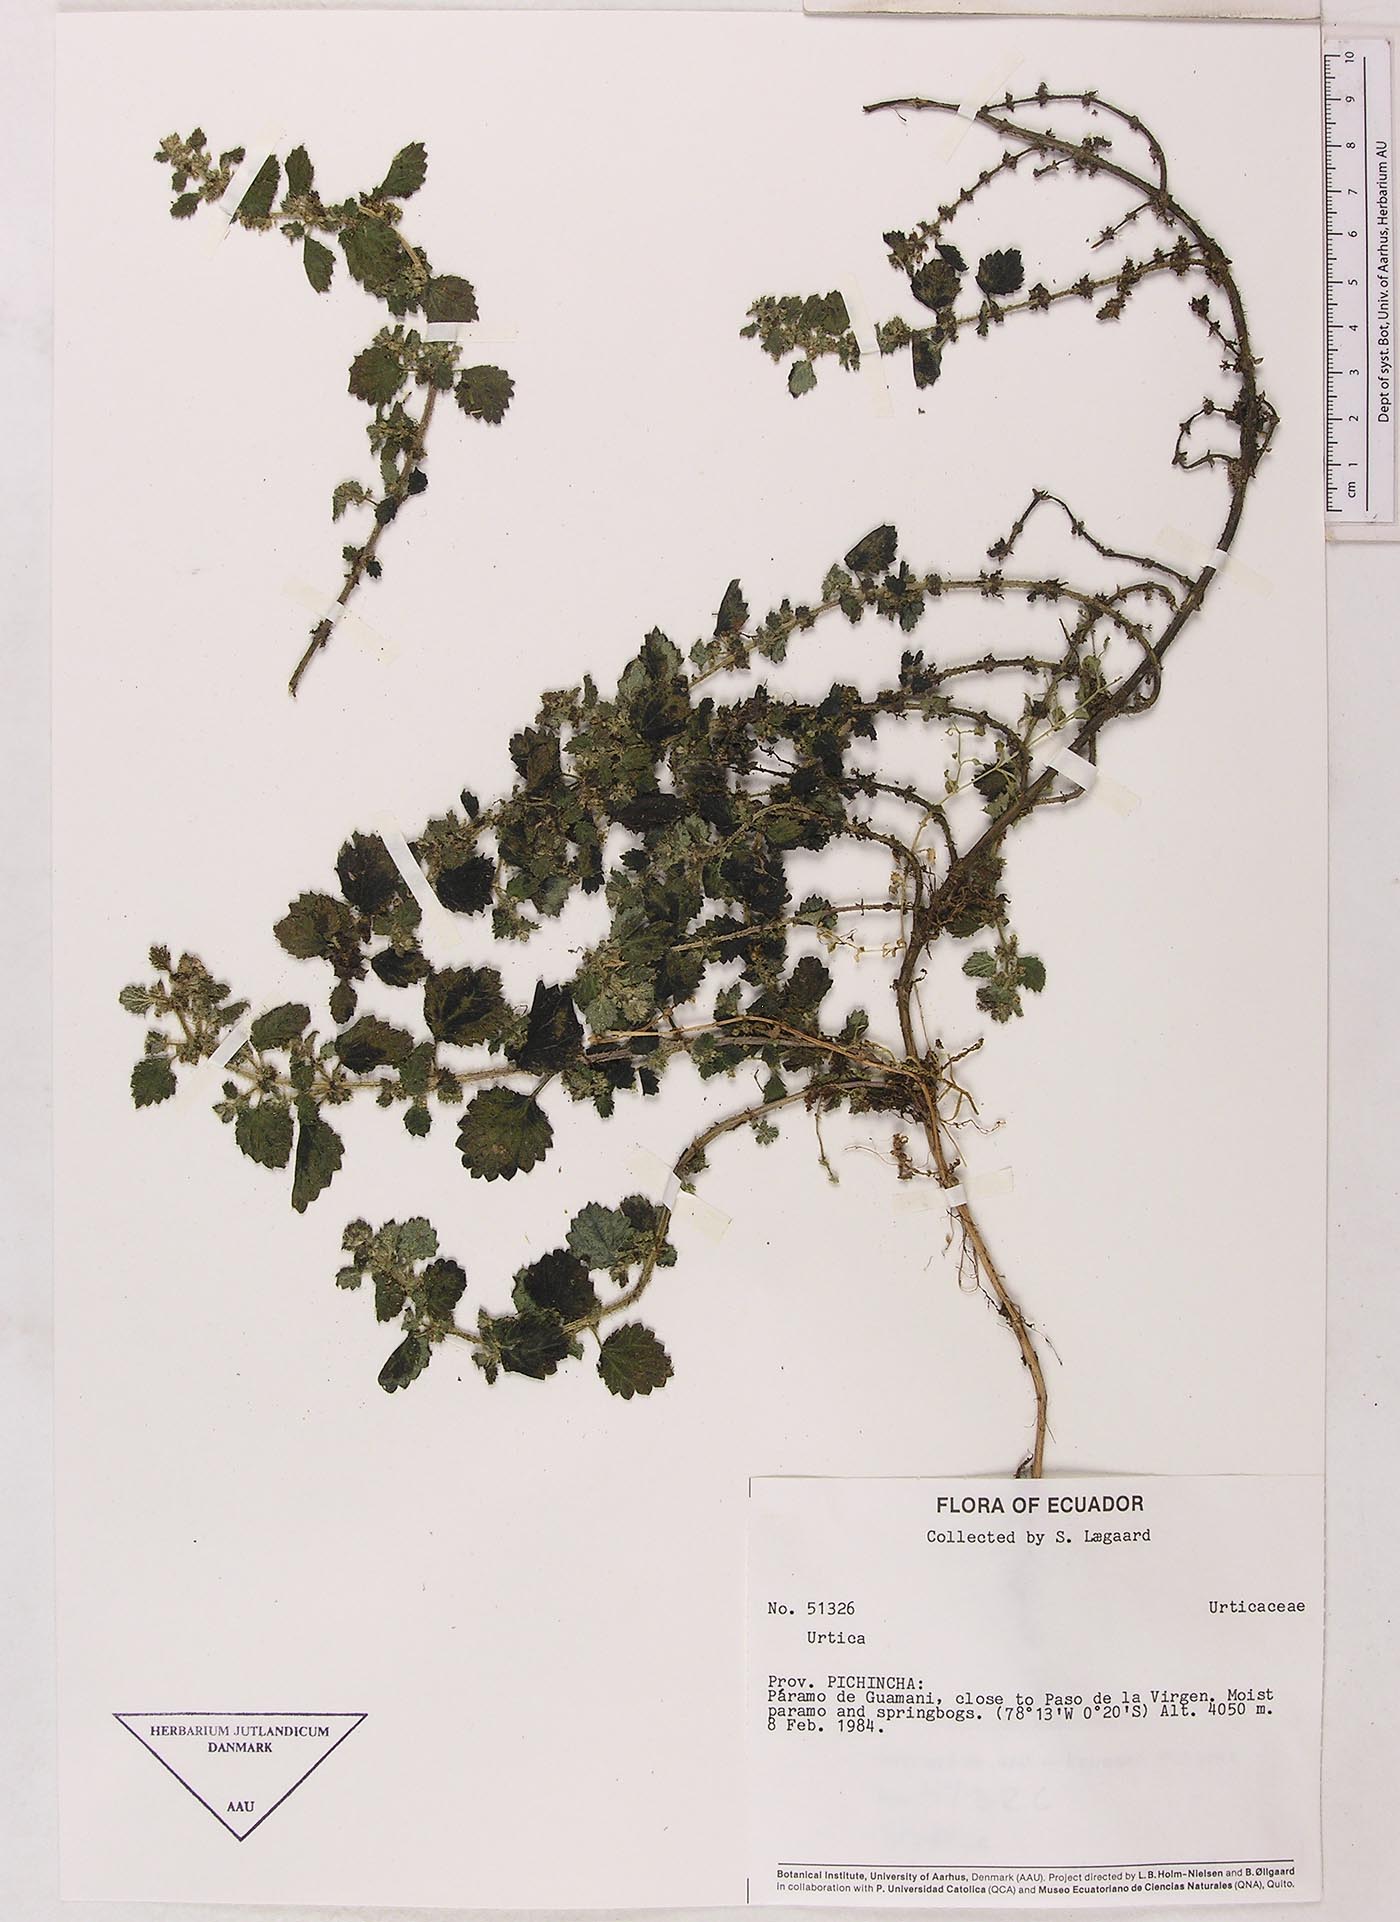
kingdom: Plantae
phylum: Tracheophyta
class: Magnoliopsida
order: Rosales
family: Urticaceae
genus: Urtica
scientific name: Urtica echinata
